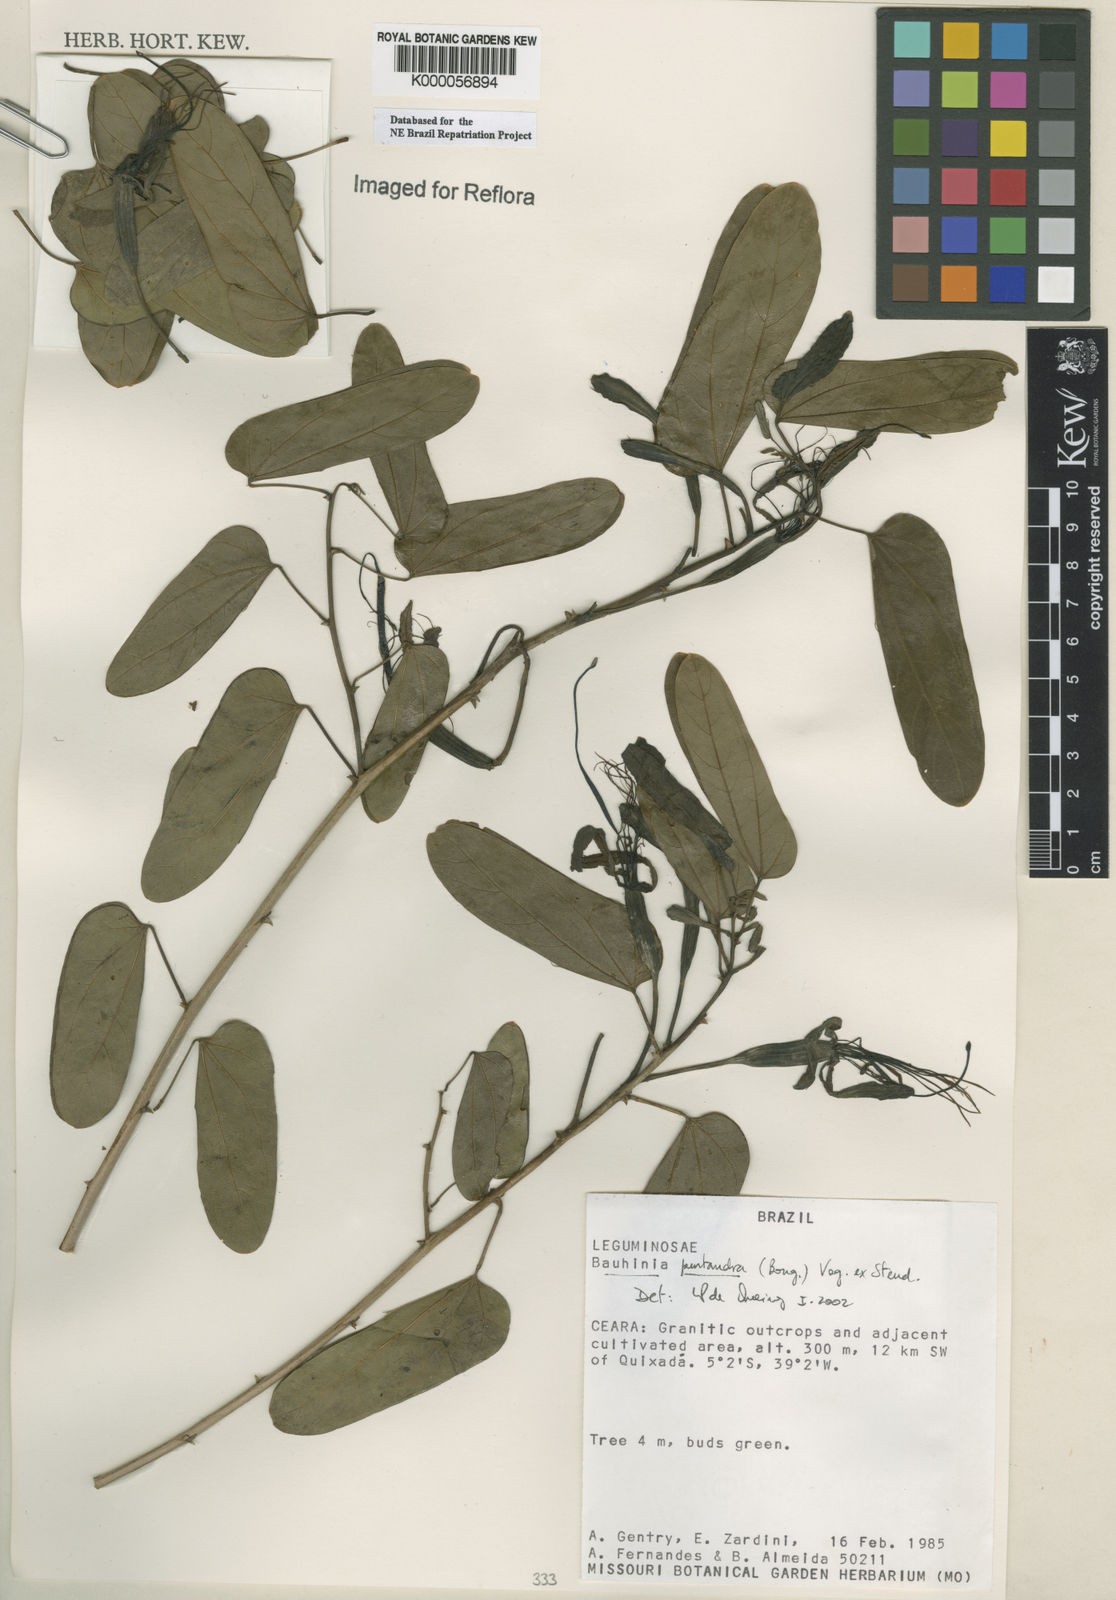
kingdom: Plantae
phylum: Tracheophyta
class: Magnoliopsida
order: Fabales
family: Fabaceae
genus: Bauhinia
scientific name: Bauhinia
